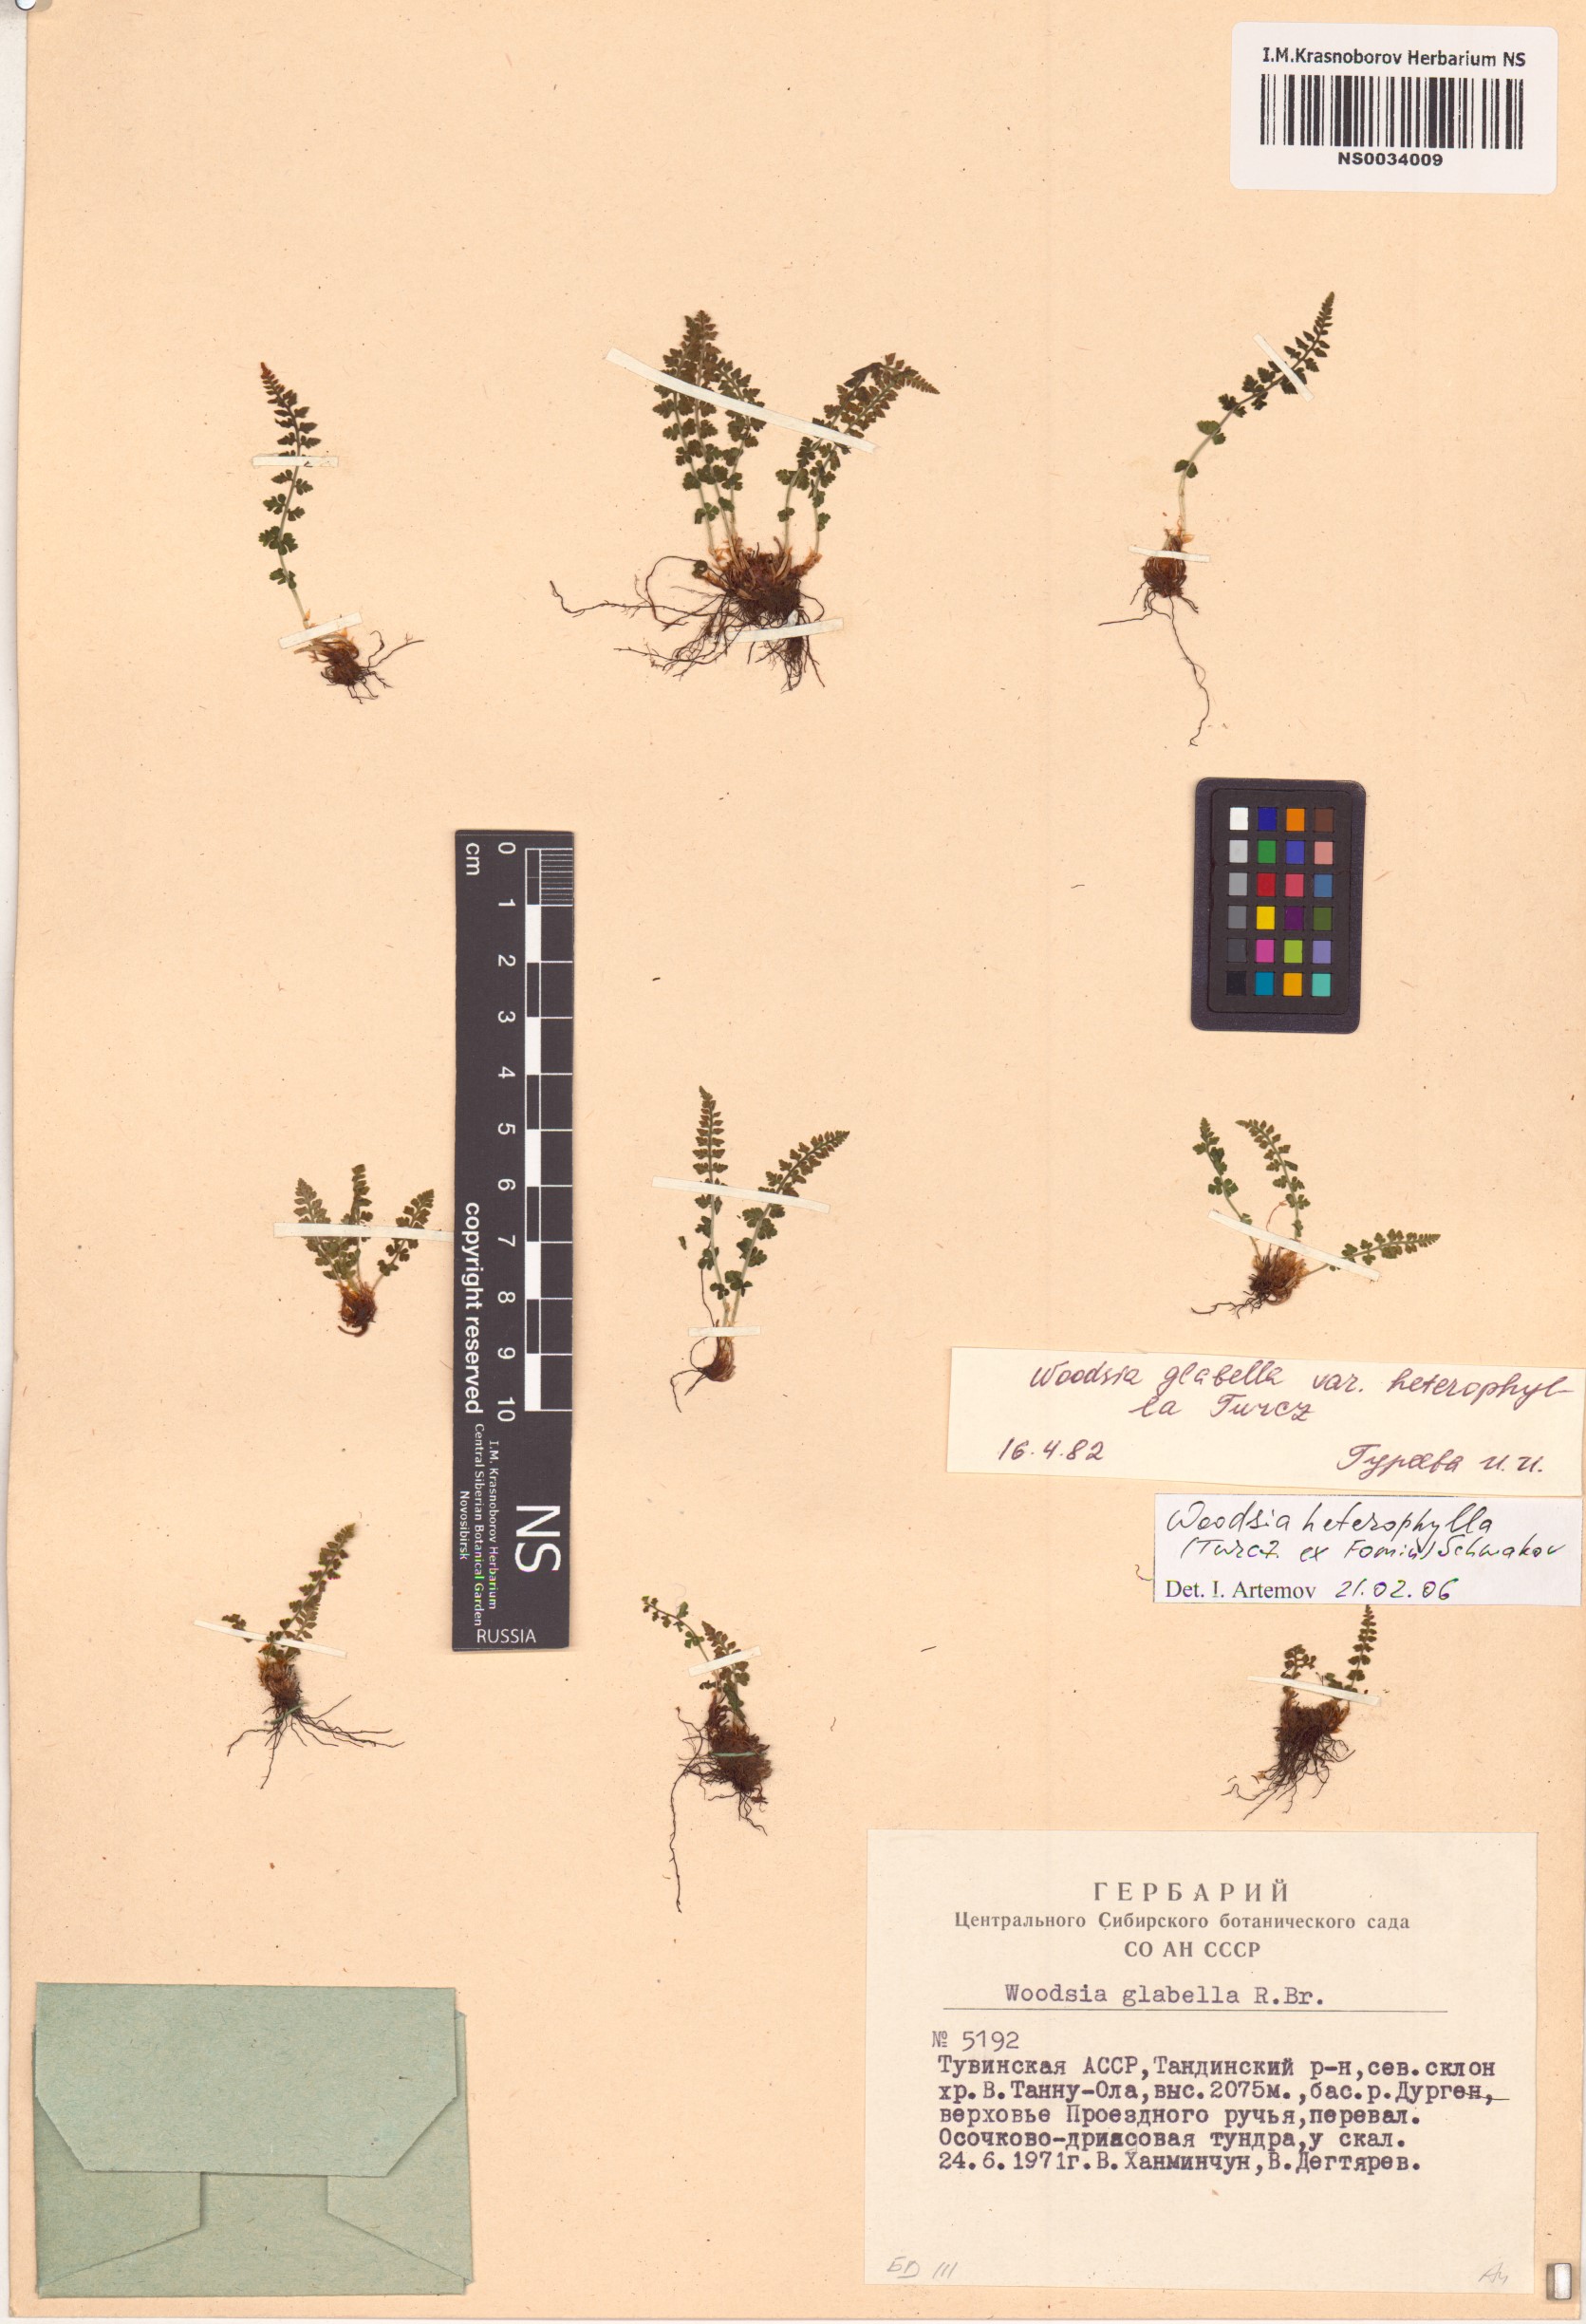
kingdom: Plantae
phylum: Tracheophyta
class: Polypodiopsida
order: Polypodiales
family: Woodsiaceae
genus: Woodsia
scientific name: Woodsia pulchella
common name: Graceful woodsia
